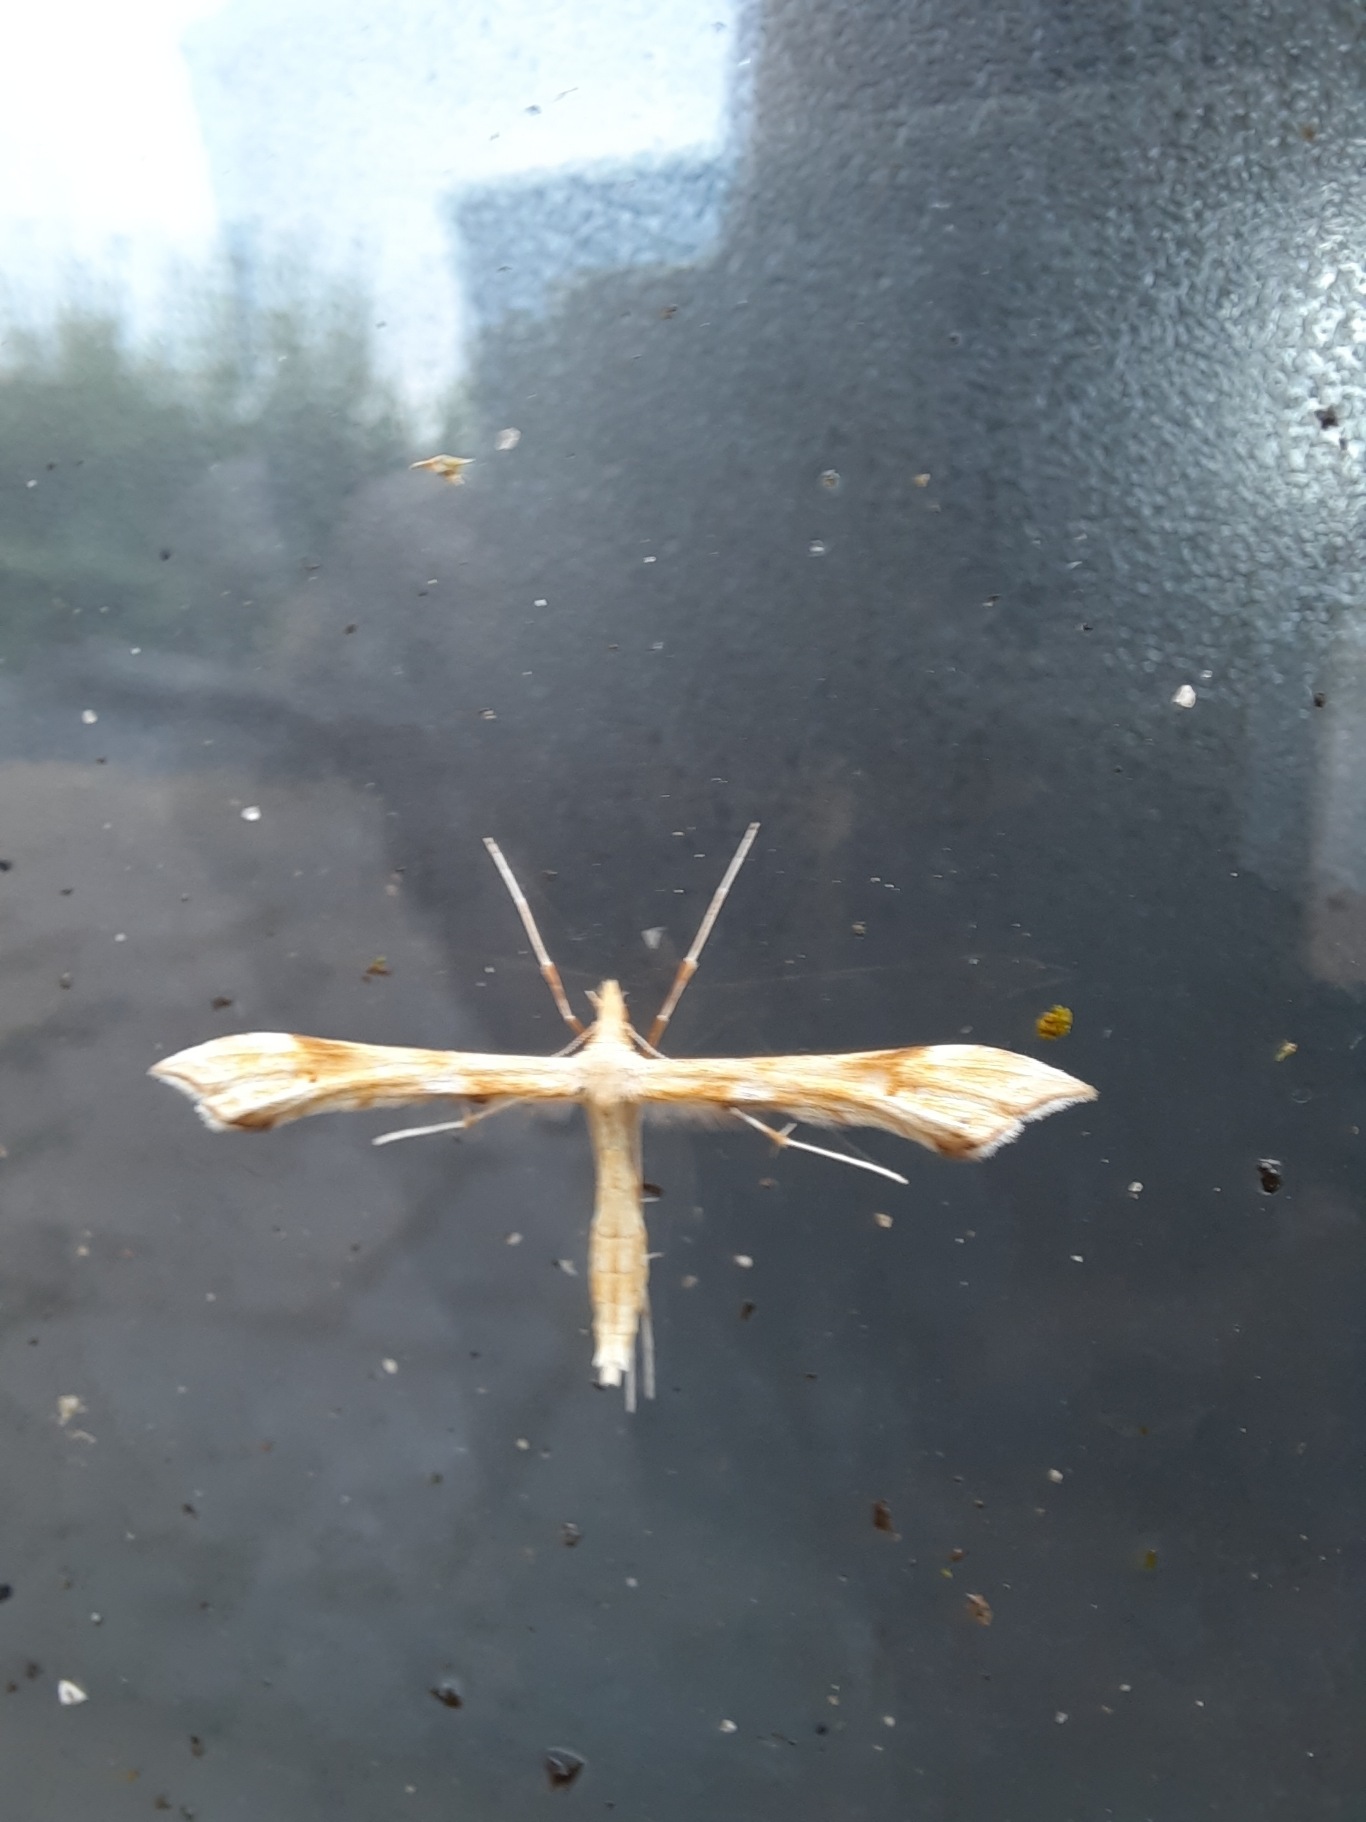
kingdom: Animalia
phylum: Arthropoda
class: Insecta
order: Lepidoptera
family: Pterophoridae
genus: Gillmeria
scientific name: Gillmeria ochrodactyla
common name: Rejnfanfjermøl
